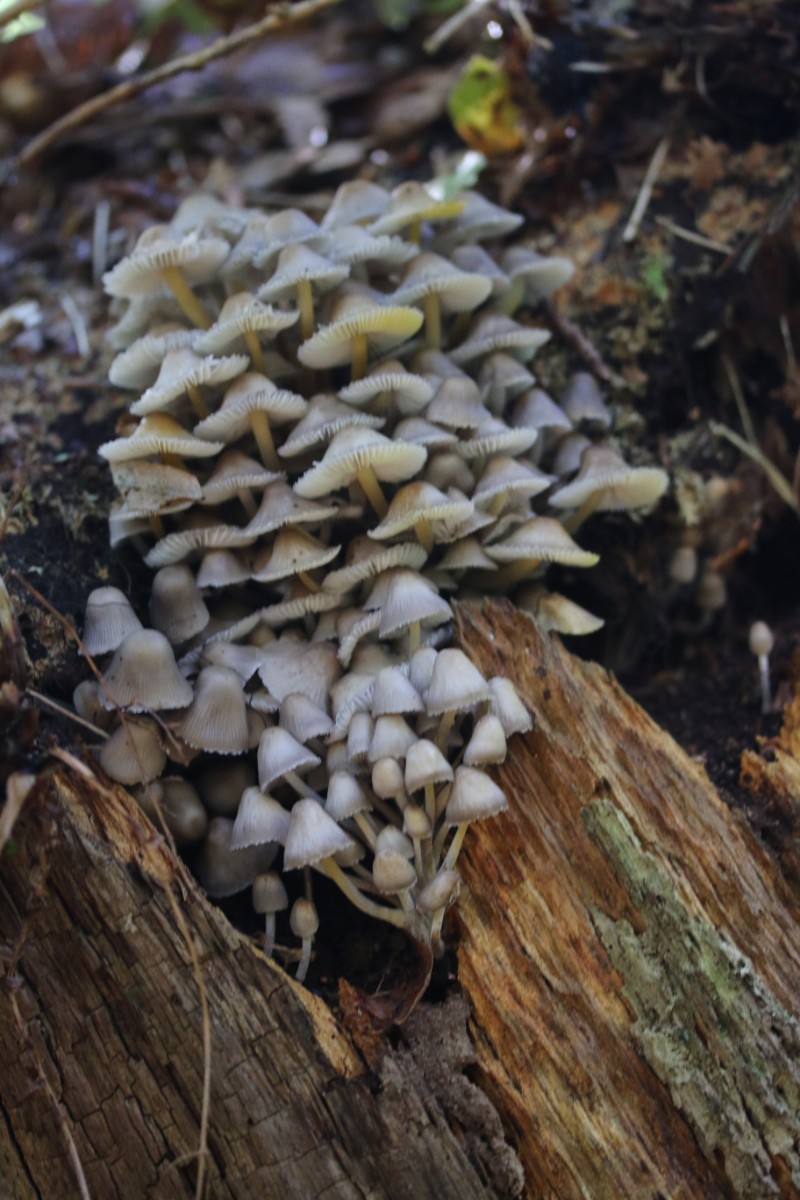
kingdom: Fungi
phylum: Basidiomycota
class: Agaricomycetes
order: Agaricales
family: Mycenaceae
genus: Mycena
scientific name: Mycena inclinata
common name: nikkende huesvamp
